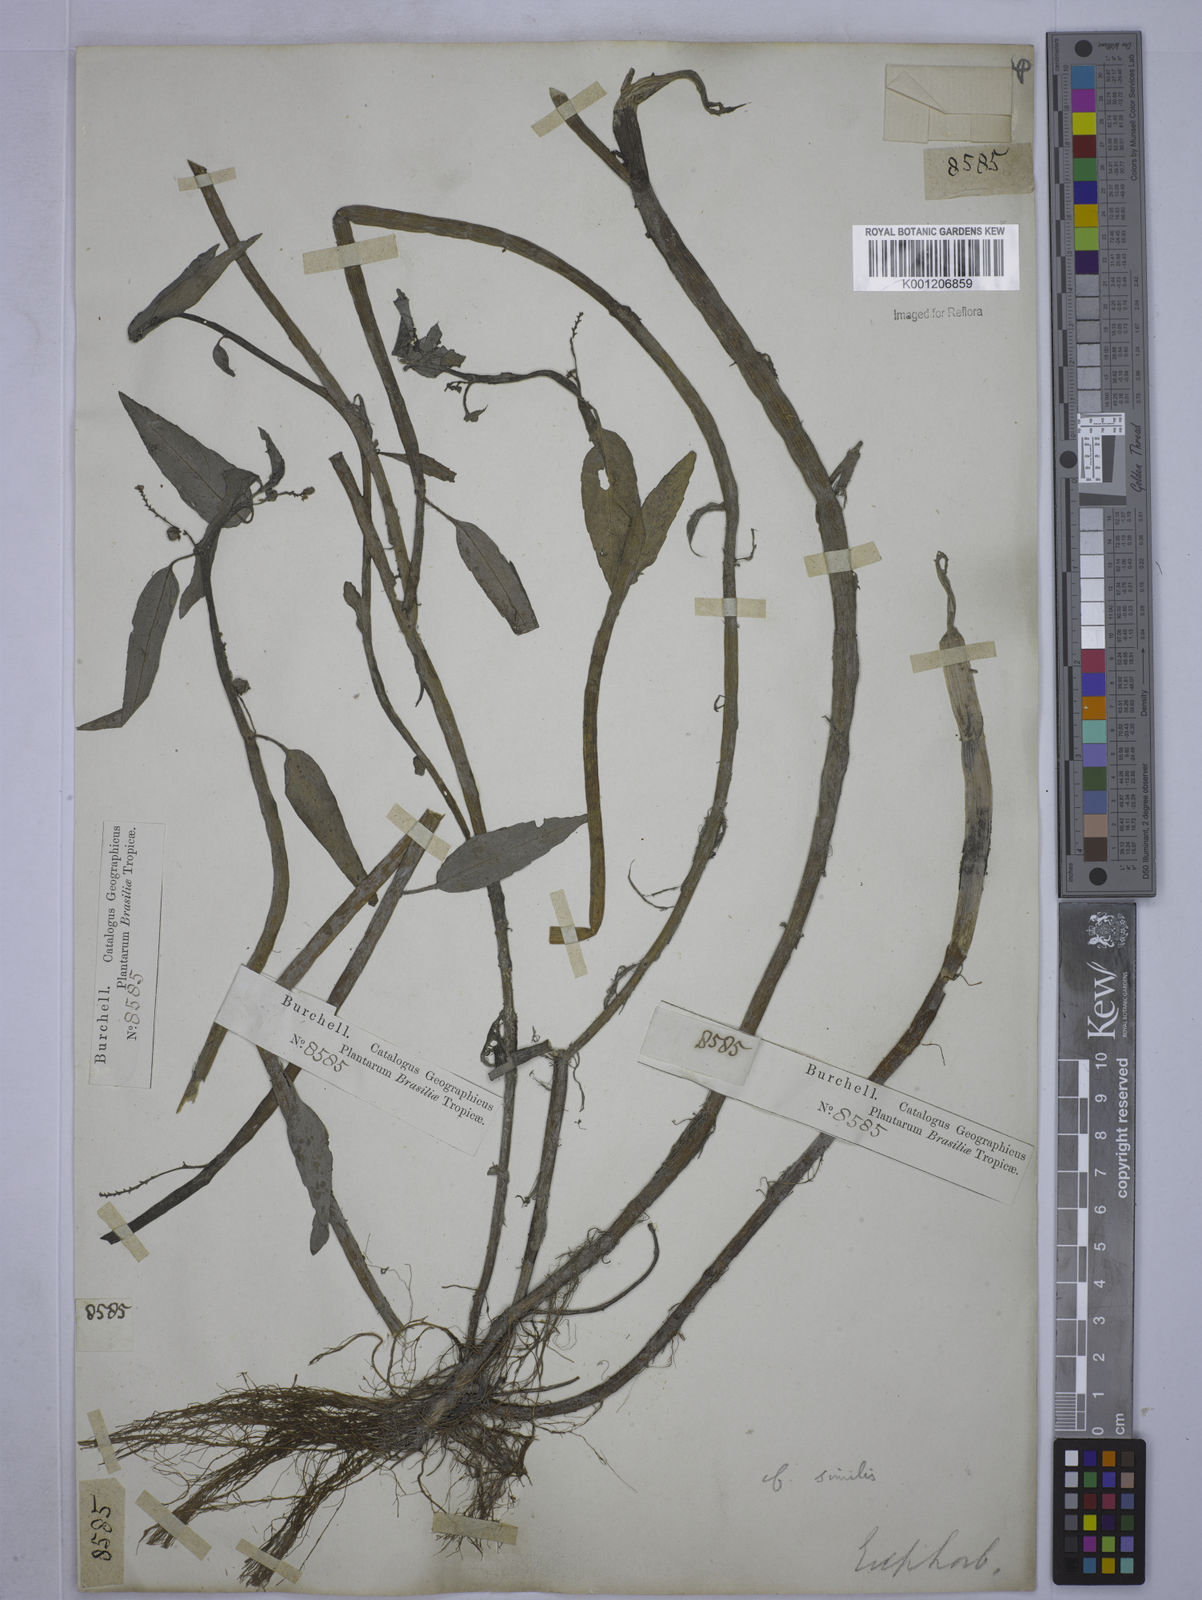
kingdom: Plantae
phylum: Tracheophyta
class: Magnoliopsida
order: Malpighiales
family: Euphorbiaceae
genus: Caperonia
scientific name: Caperonia similis
